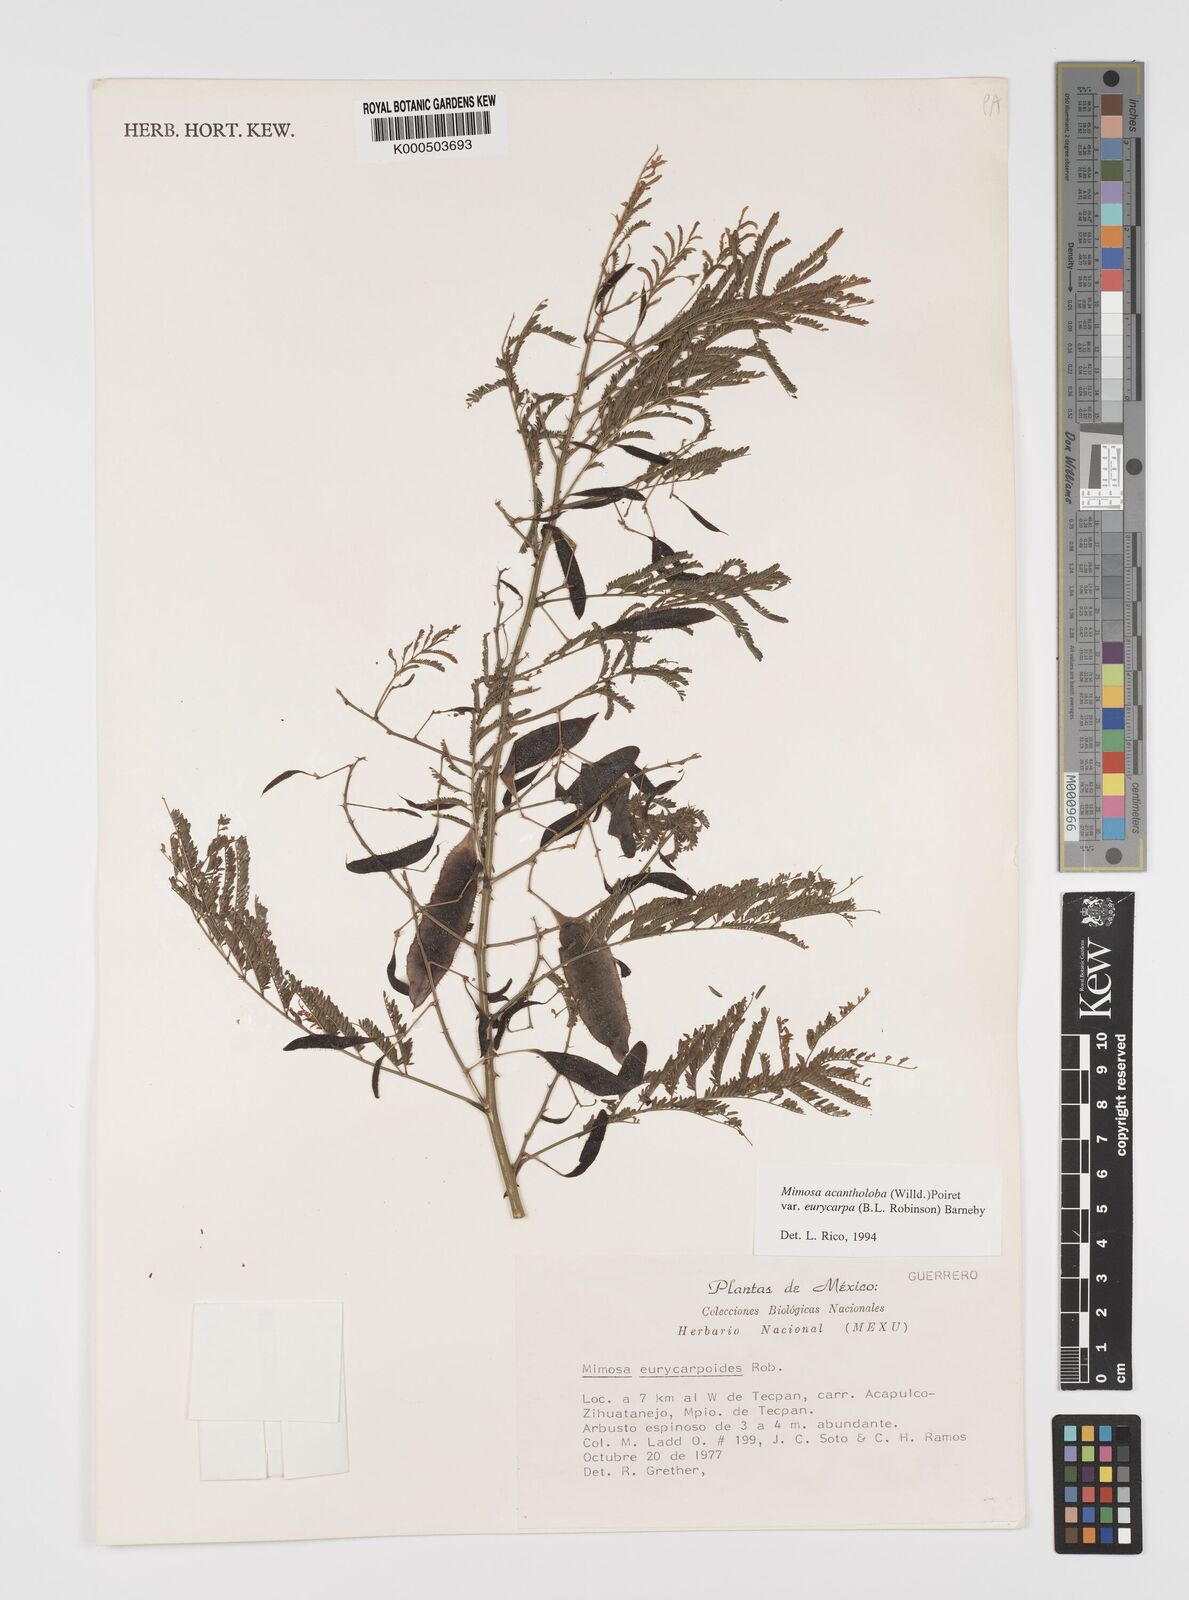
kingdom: Plantae
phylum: Tracheophyta
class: Magnoliopsida
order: Fabales
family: Fabaceae
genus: Mimosa
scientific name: Mimosa acantholoba
